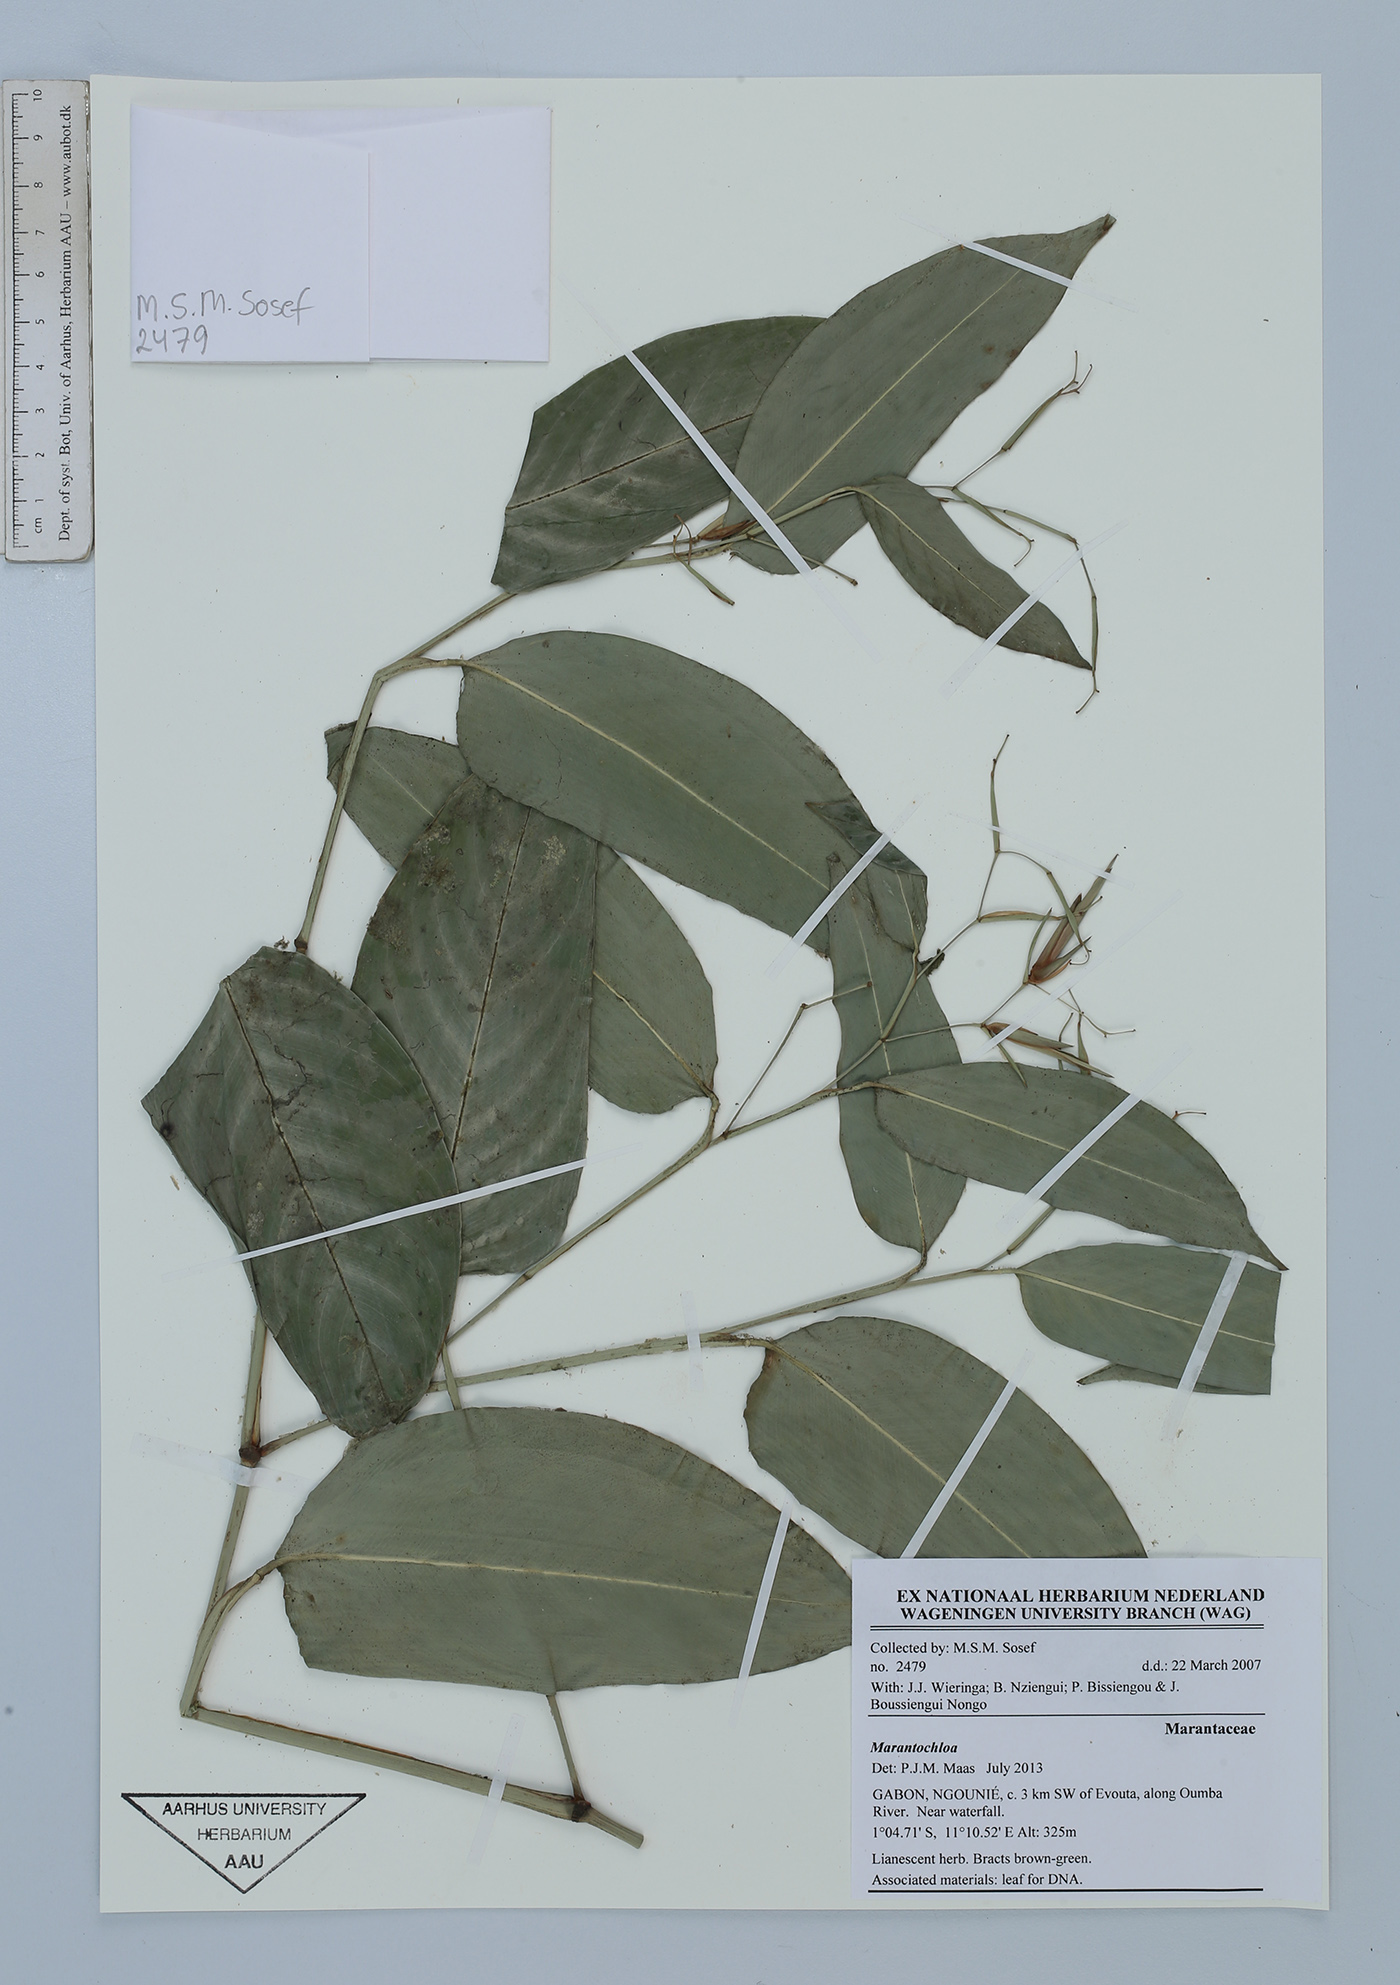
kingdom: Plantae
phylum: Tracheophyta
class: Liliopsida
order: Zingiberales
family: Marantaceae
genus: Marantochloa
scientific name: Marantochloa
